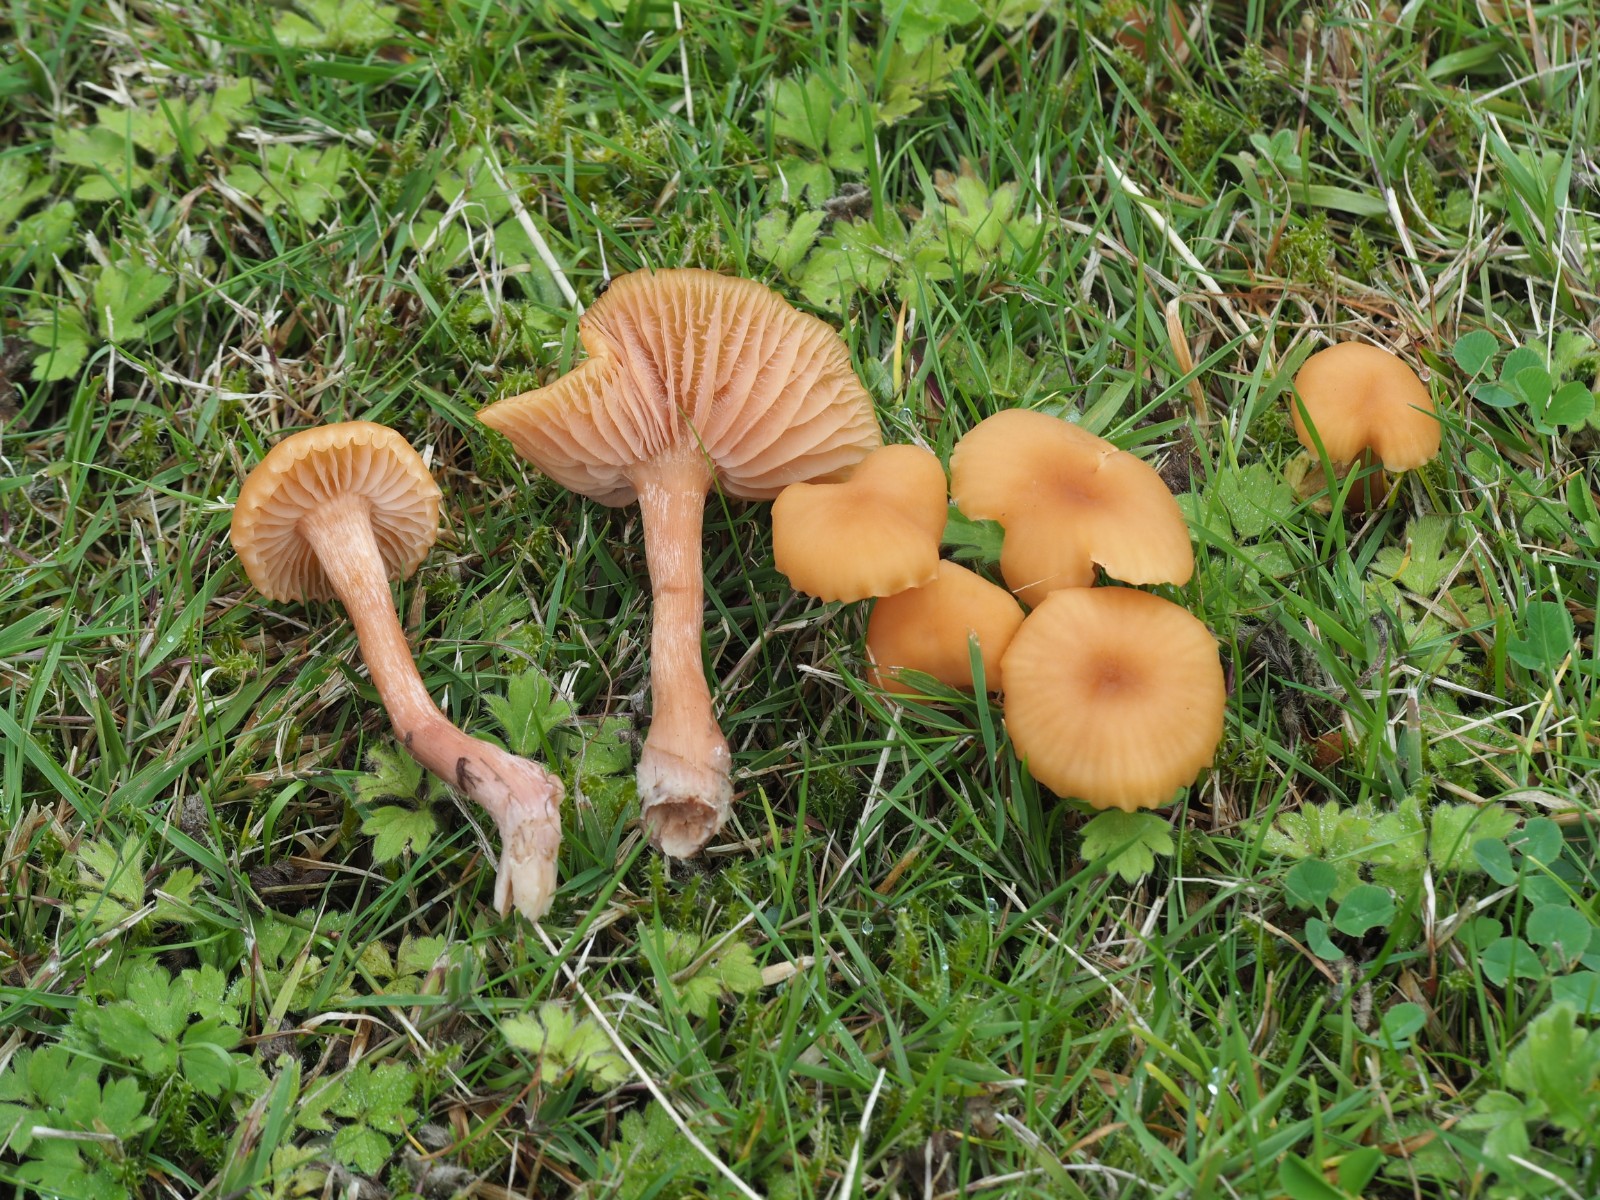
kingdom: Fungi
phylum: Basidiomycota
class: Agaricomycetes
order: Agaricales
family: Hydnangiaceae
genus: Laccaria
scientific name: Laccaria laccata
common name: rød ametysthat
